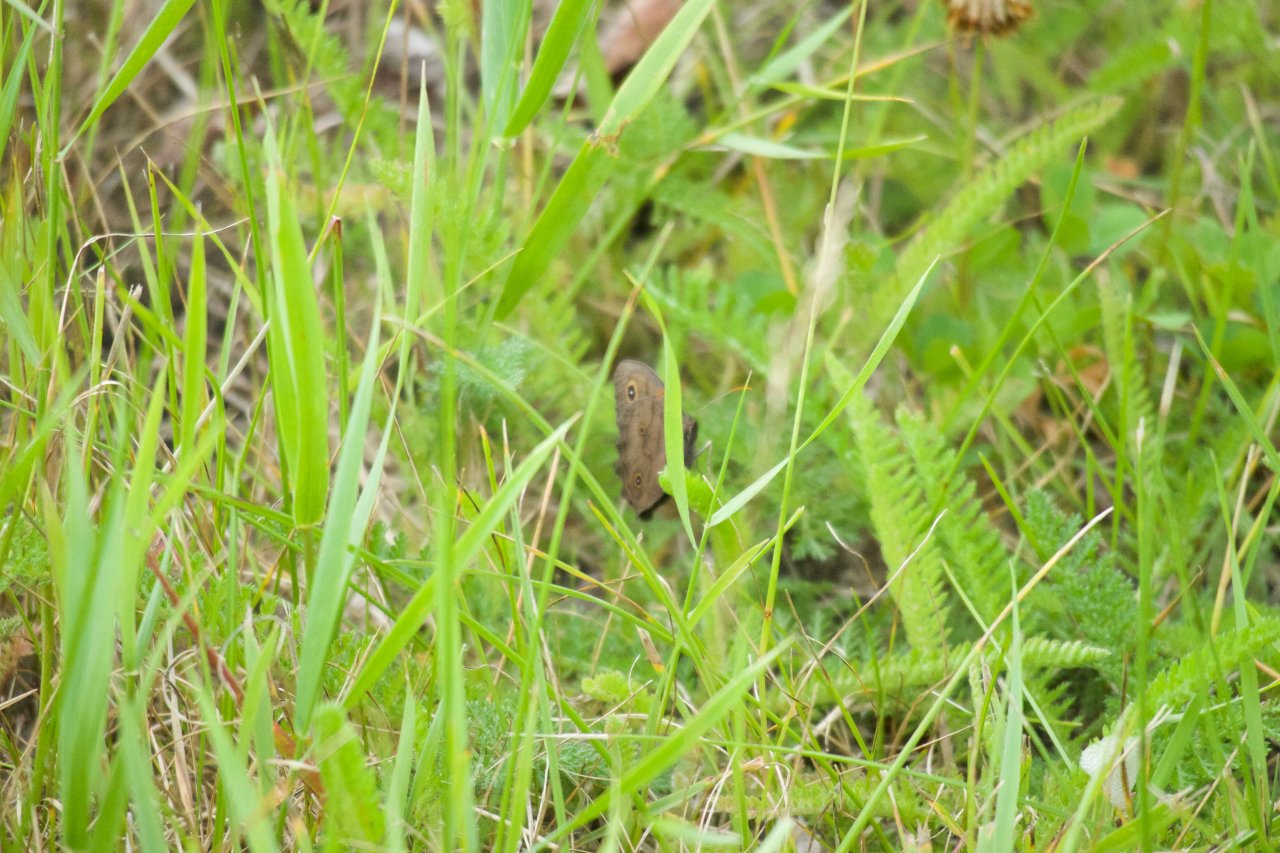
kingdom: Animalia
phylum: Arthropoda
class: Insecta
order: Lepidoptera
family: Nymphalidae
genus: Cercyonis
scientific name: Cercyonis pegala
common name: Common Wood-Nymph
